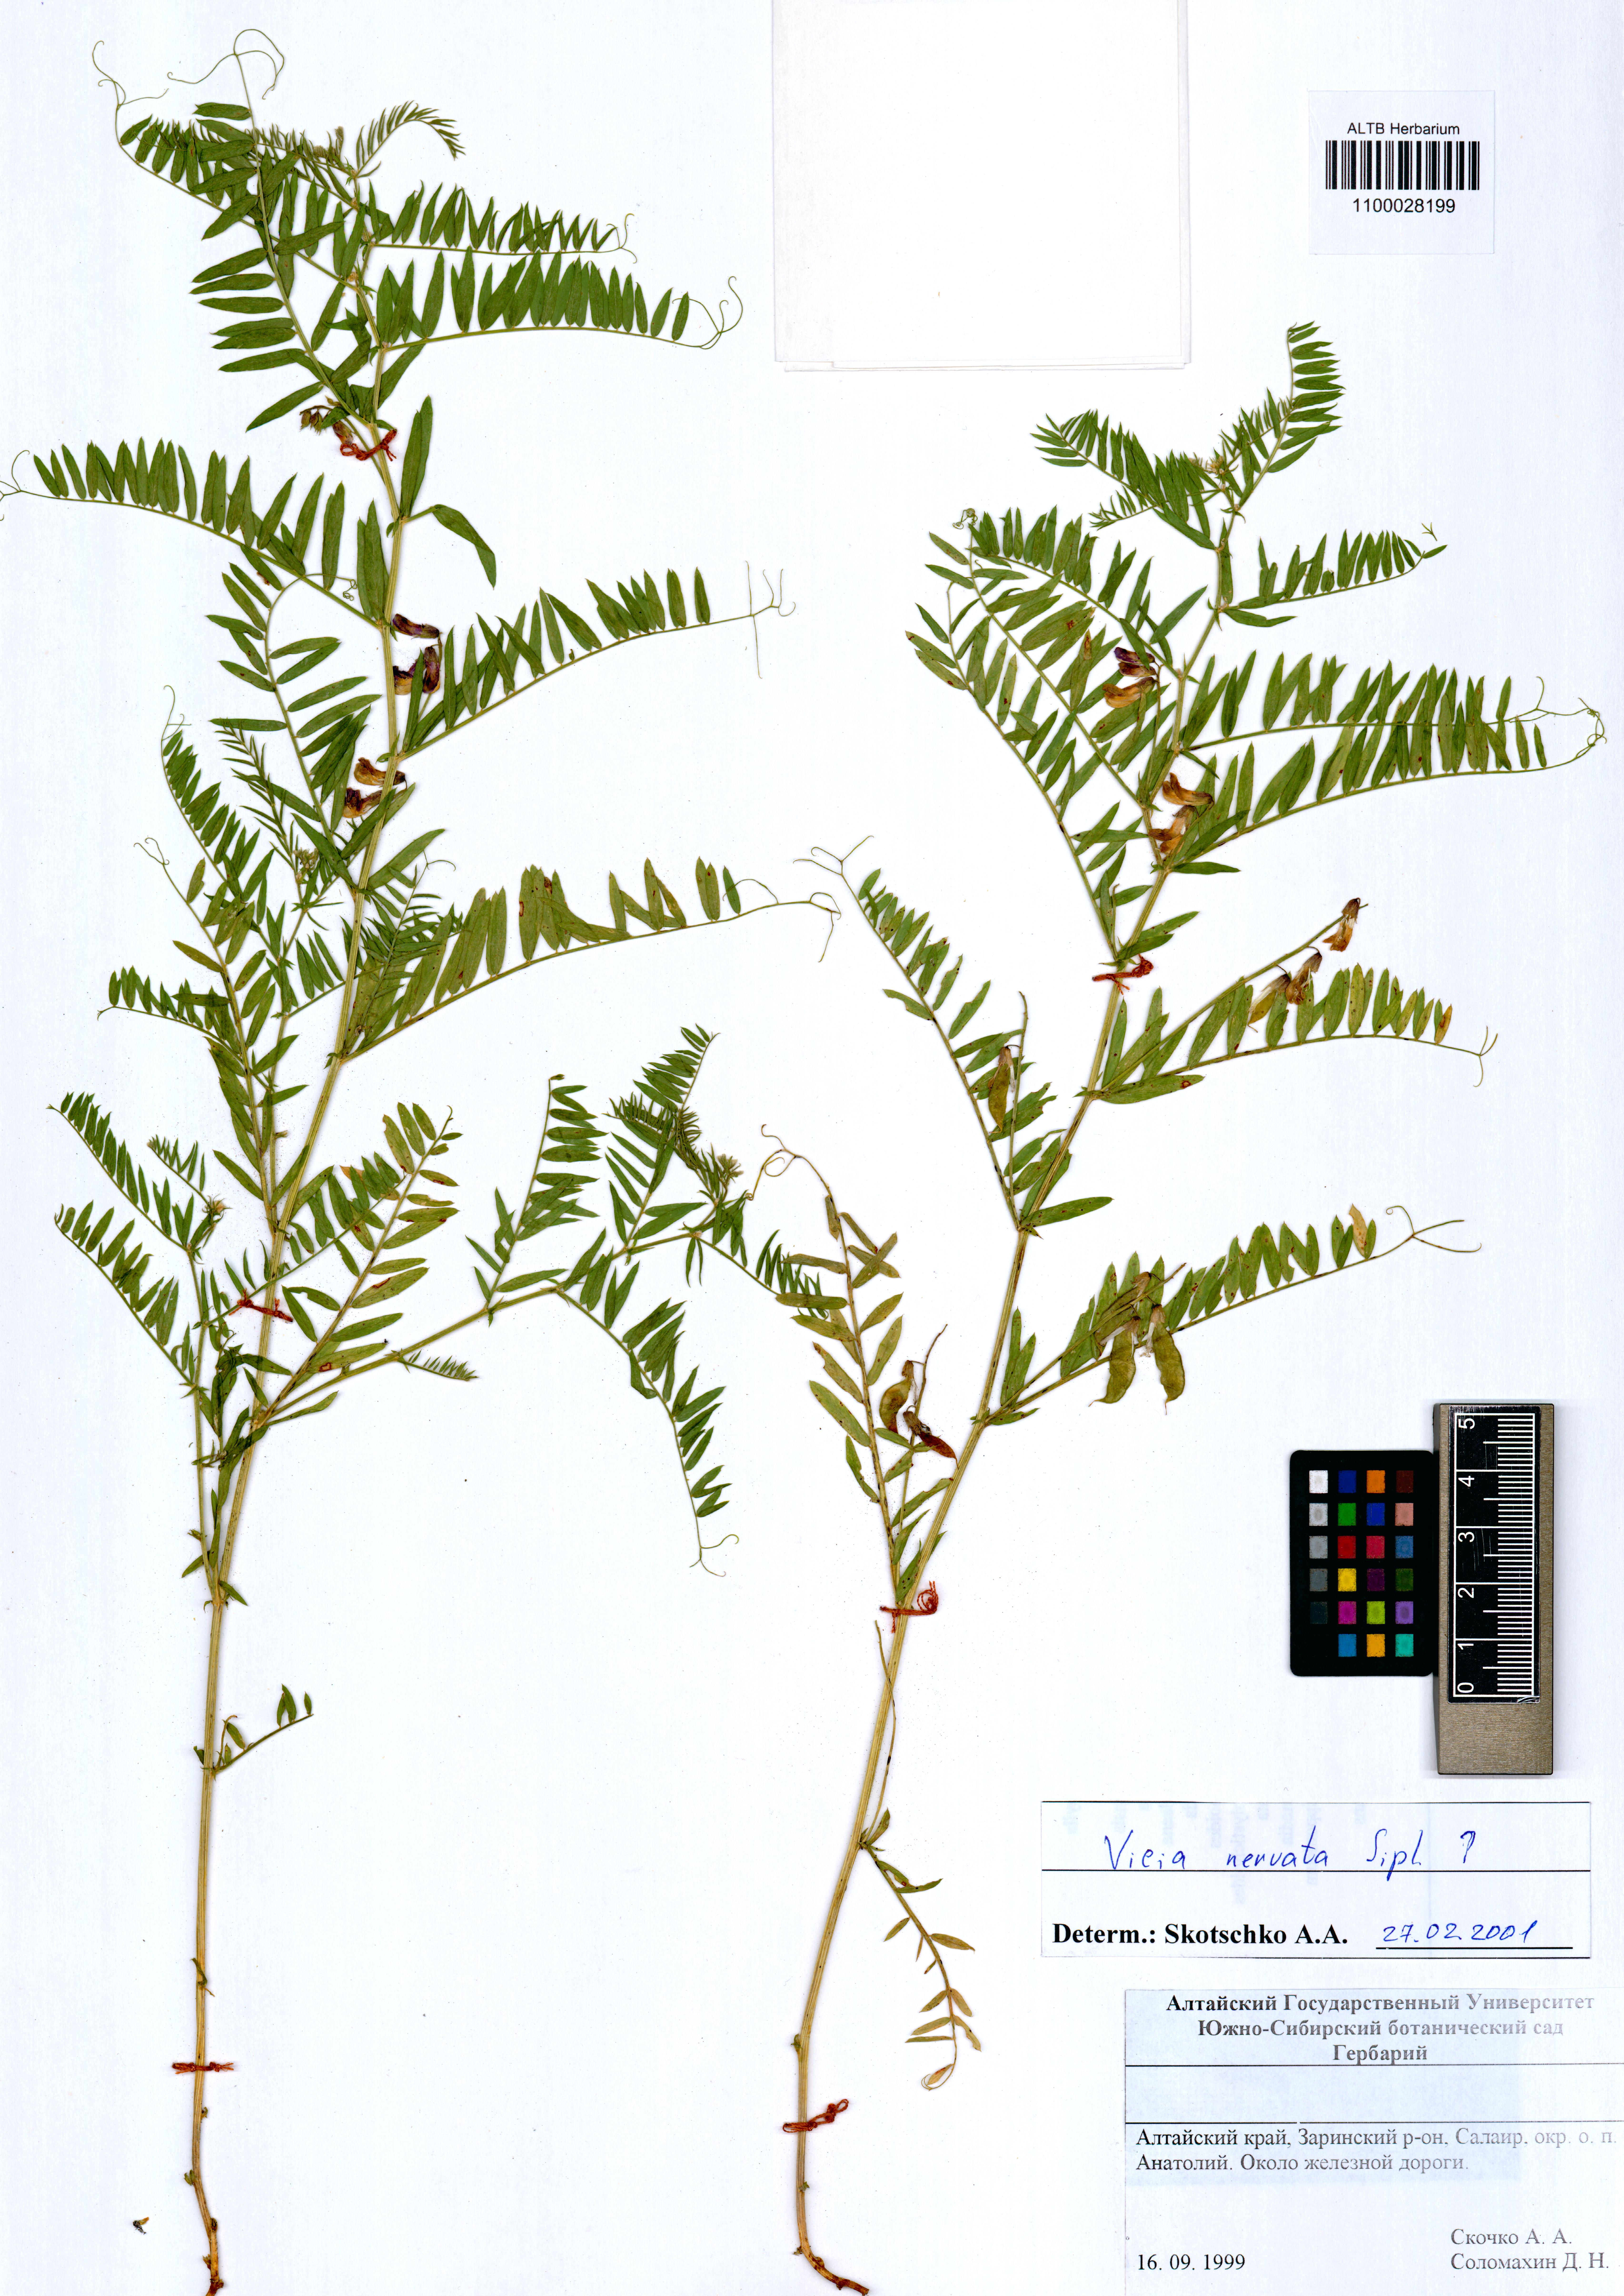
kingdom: Plantae
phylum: Tracheophyta
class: Magnoliopsida
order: Fabales
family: Fabaceae
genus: Vicia
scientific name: Vicia multicaulis
